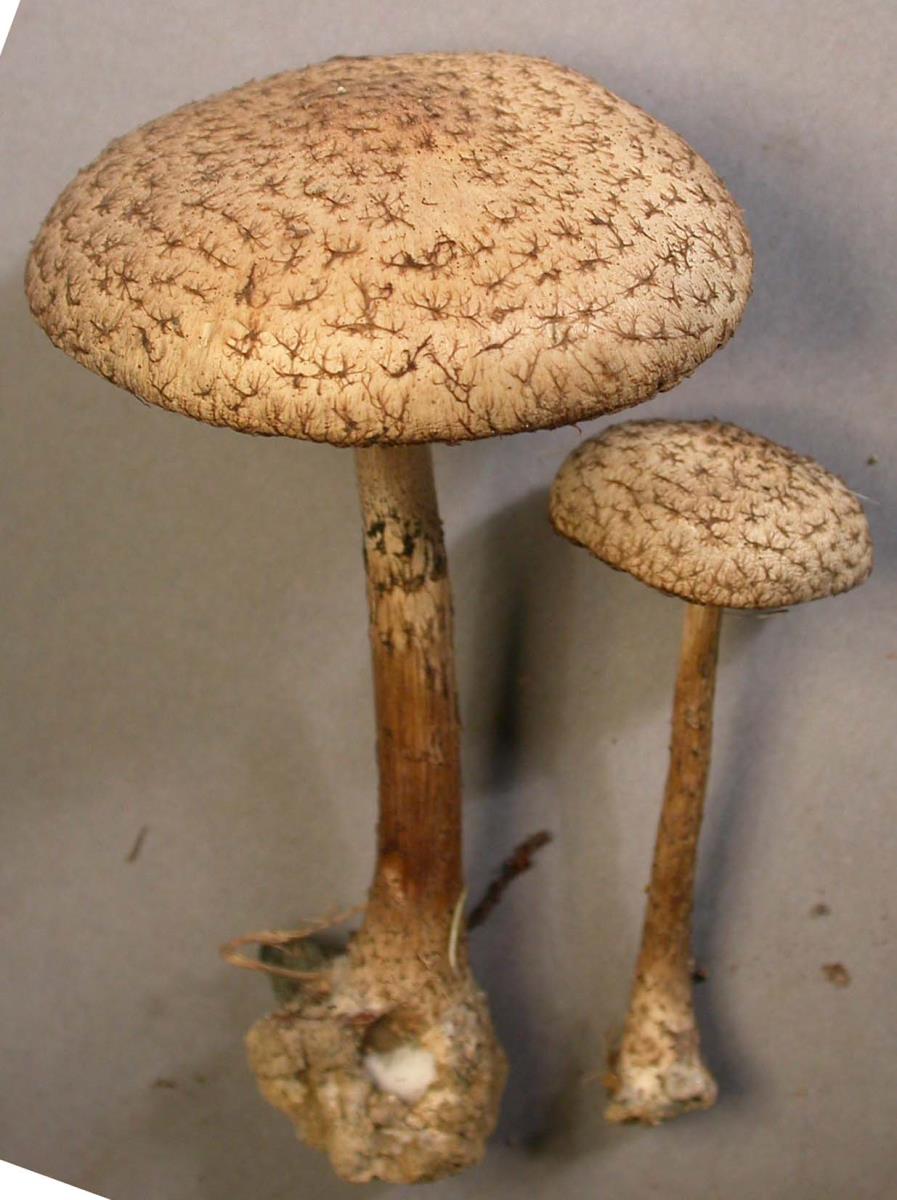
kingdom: Fungi
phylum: Basidiomycota
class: Agaricomycetes
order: Agaricales
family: Psathyrellaceae
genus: Psathyrella
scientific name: Psathyrella asperospora
